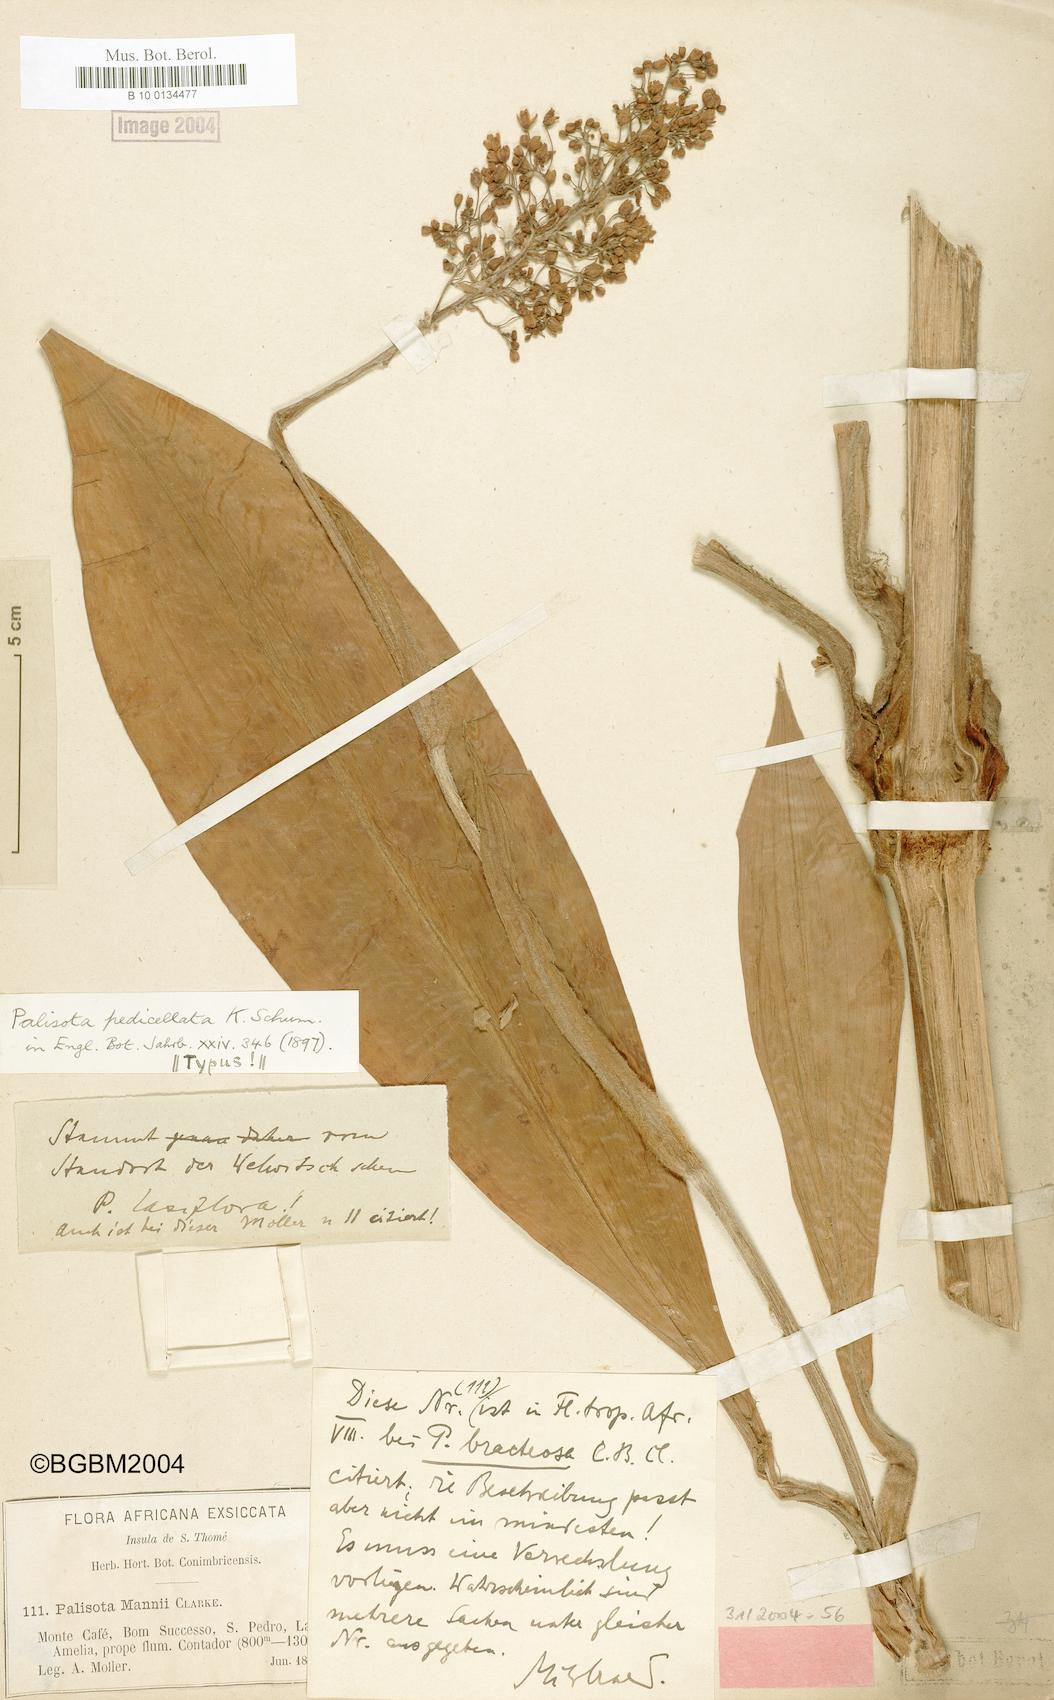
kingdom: Plantae
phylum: Tracheophyta
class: Liliopsida
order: Commelinales
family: Commelinaceae
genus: Palisota
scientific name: Palisota pedicellata
